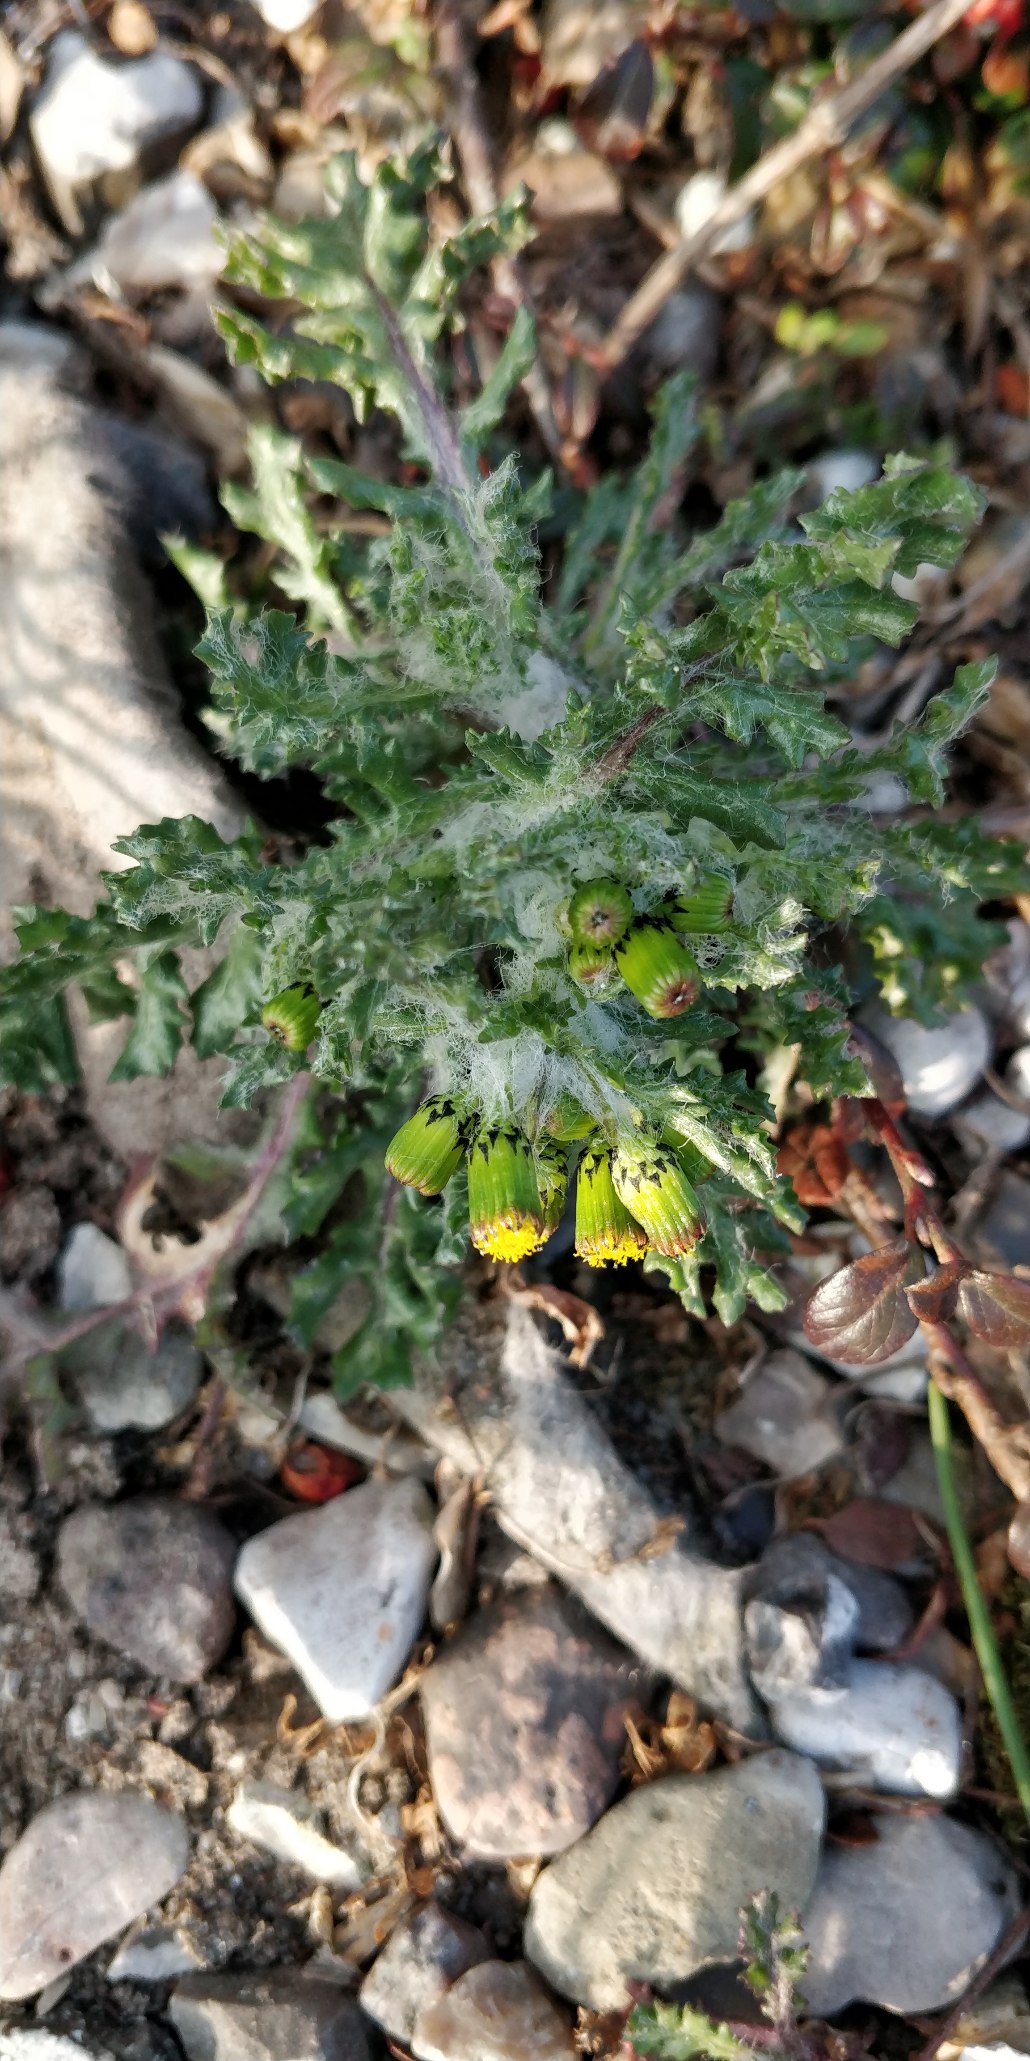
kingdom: Plantae
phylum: Tracheophyta
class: Magnoliopsida
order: Asterales
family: Asteraceae
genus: Senecio
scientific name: Senecio vulgaris
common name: Almindelig brandbæger
